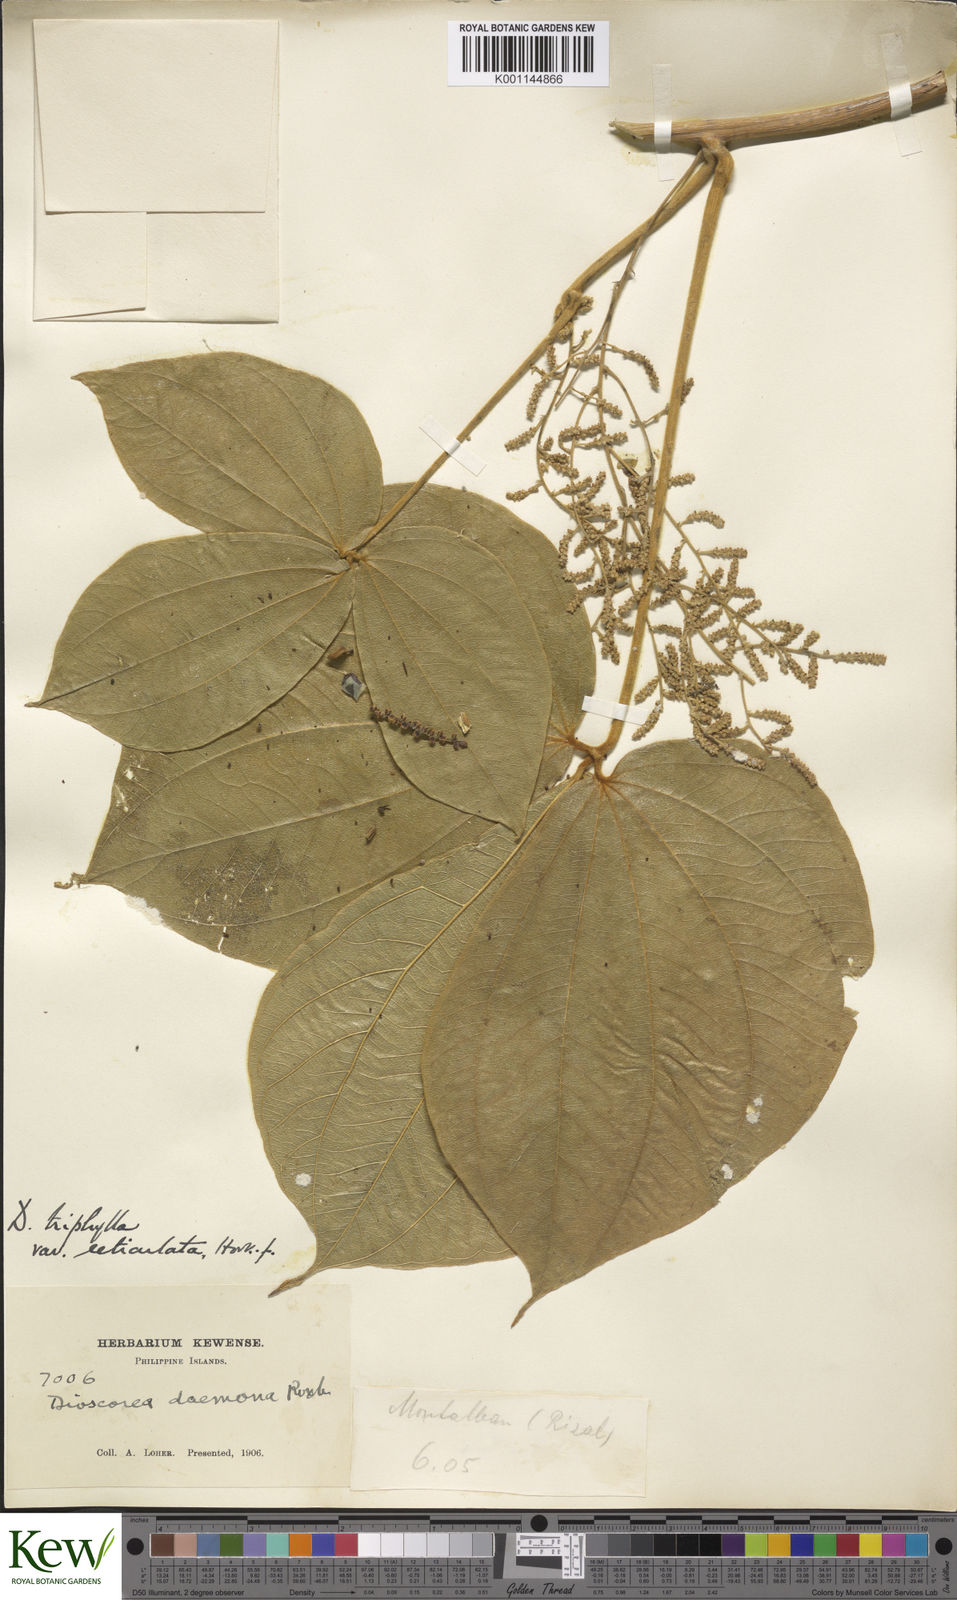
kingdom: Plantae
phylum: Tracheophyta
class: Liliopsida
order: Dioscoreales
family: Dioscoreaceae
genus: Dioscorea
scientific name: Dioscorea hispida
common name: Asiatic bitter yam
